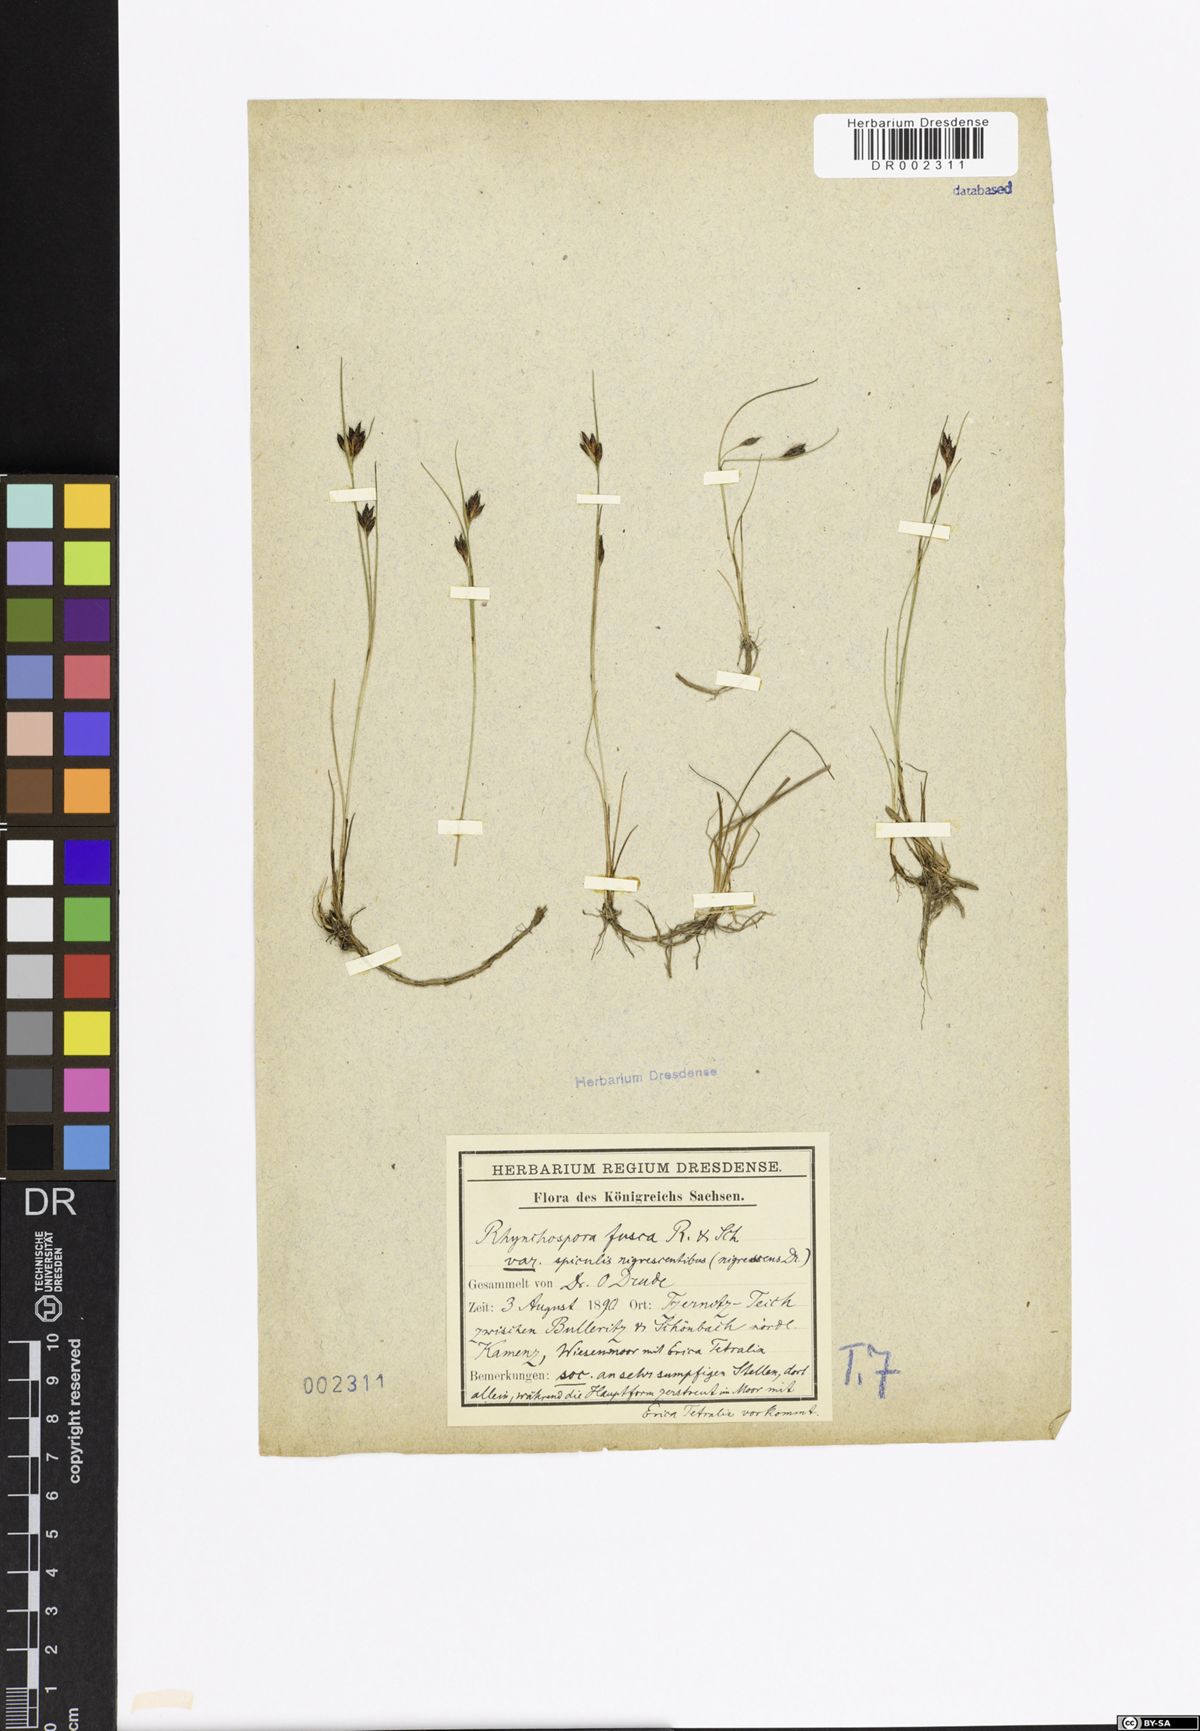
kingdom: Plantae
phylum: Tracheophyta
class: Liliopsida
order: Poales
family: Cyperaceae
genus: Rhynchospora
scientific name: Rhynchospora fusca
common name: Brown beak-sedge
